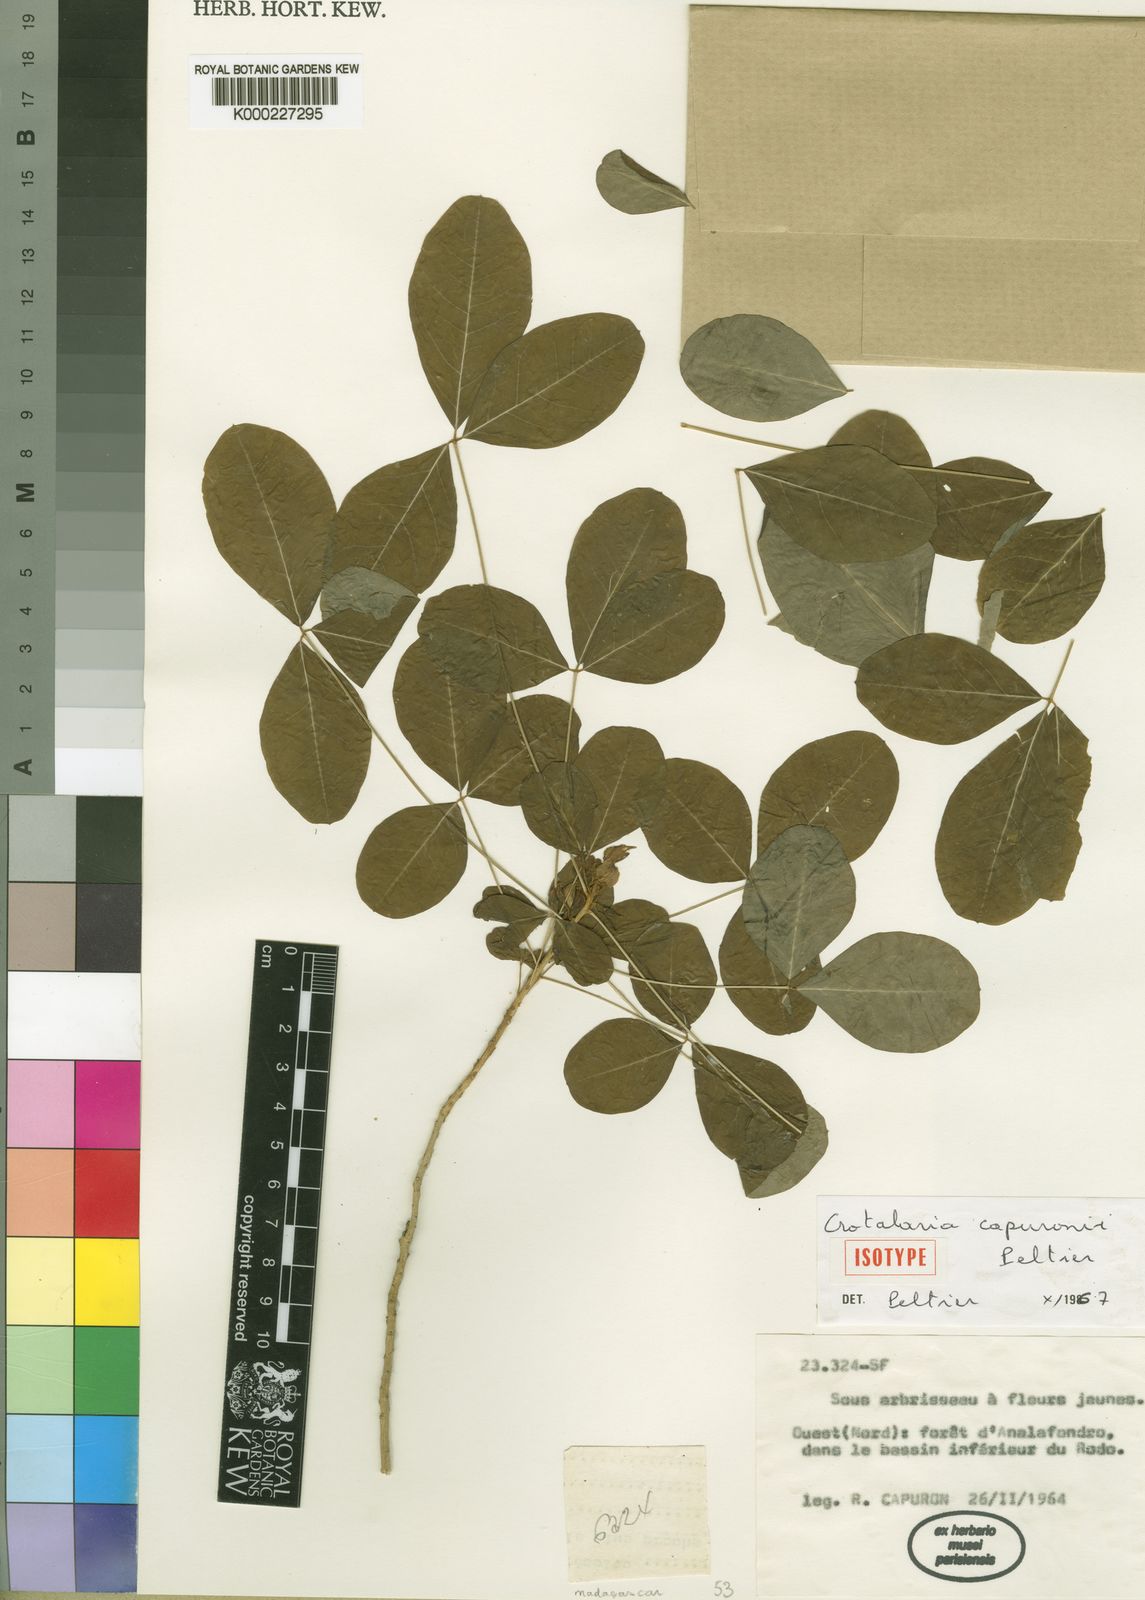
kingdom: Plantae
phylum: Tracheophyta
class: Magnoliopsida
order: Fabales
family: Fabaceae
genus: Crotalaria
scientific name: Crotalaria capuronii
